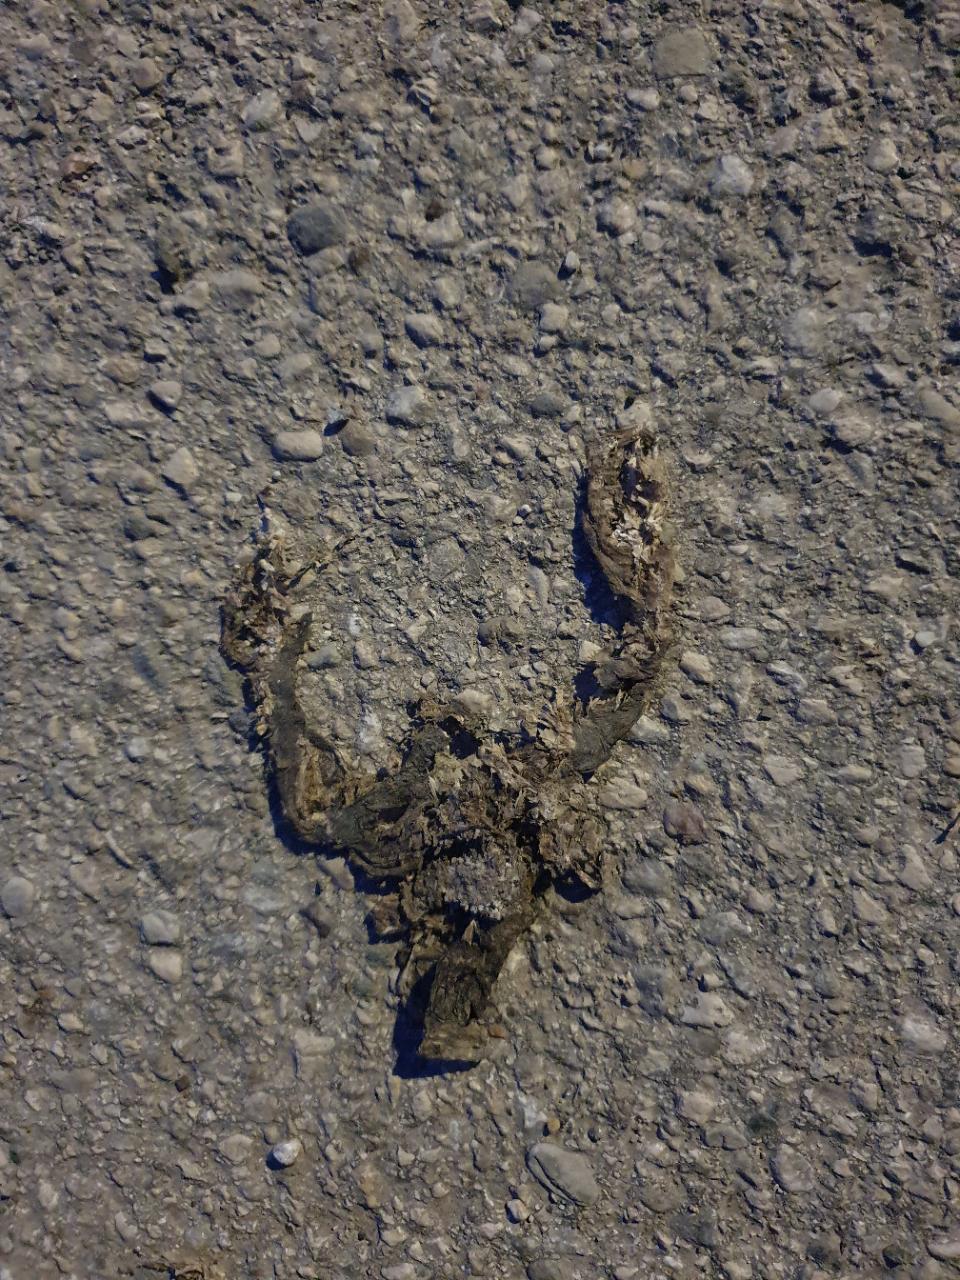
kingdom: Animalia
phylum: Chordata
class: Amphibia
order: Anura
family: Bufonidae
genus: Bufo
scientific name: Bufo bufo
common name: Common toad
